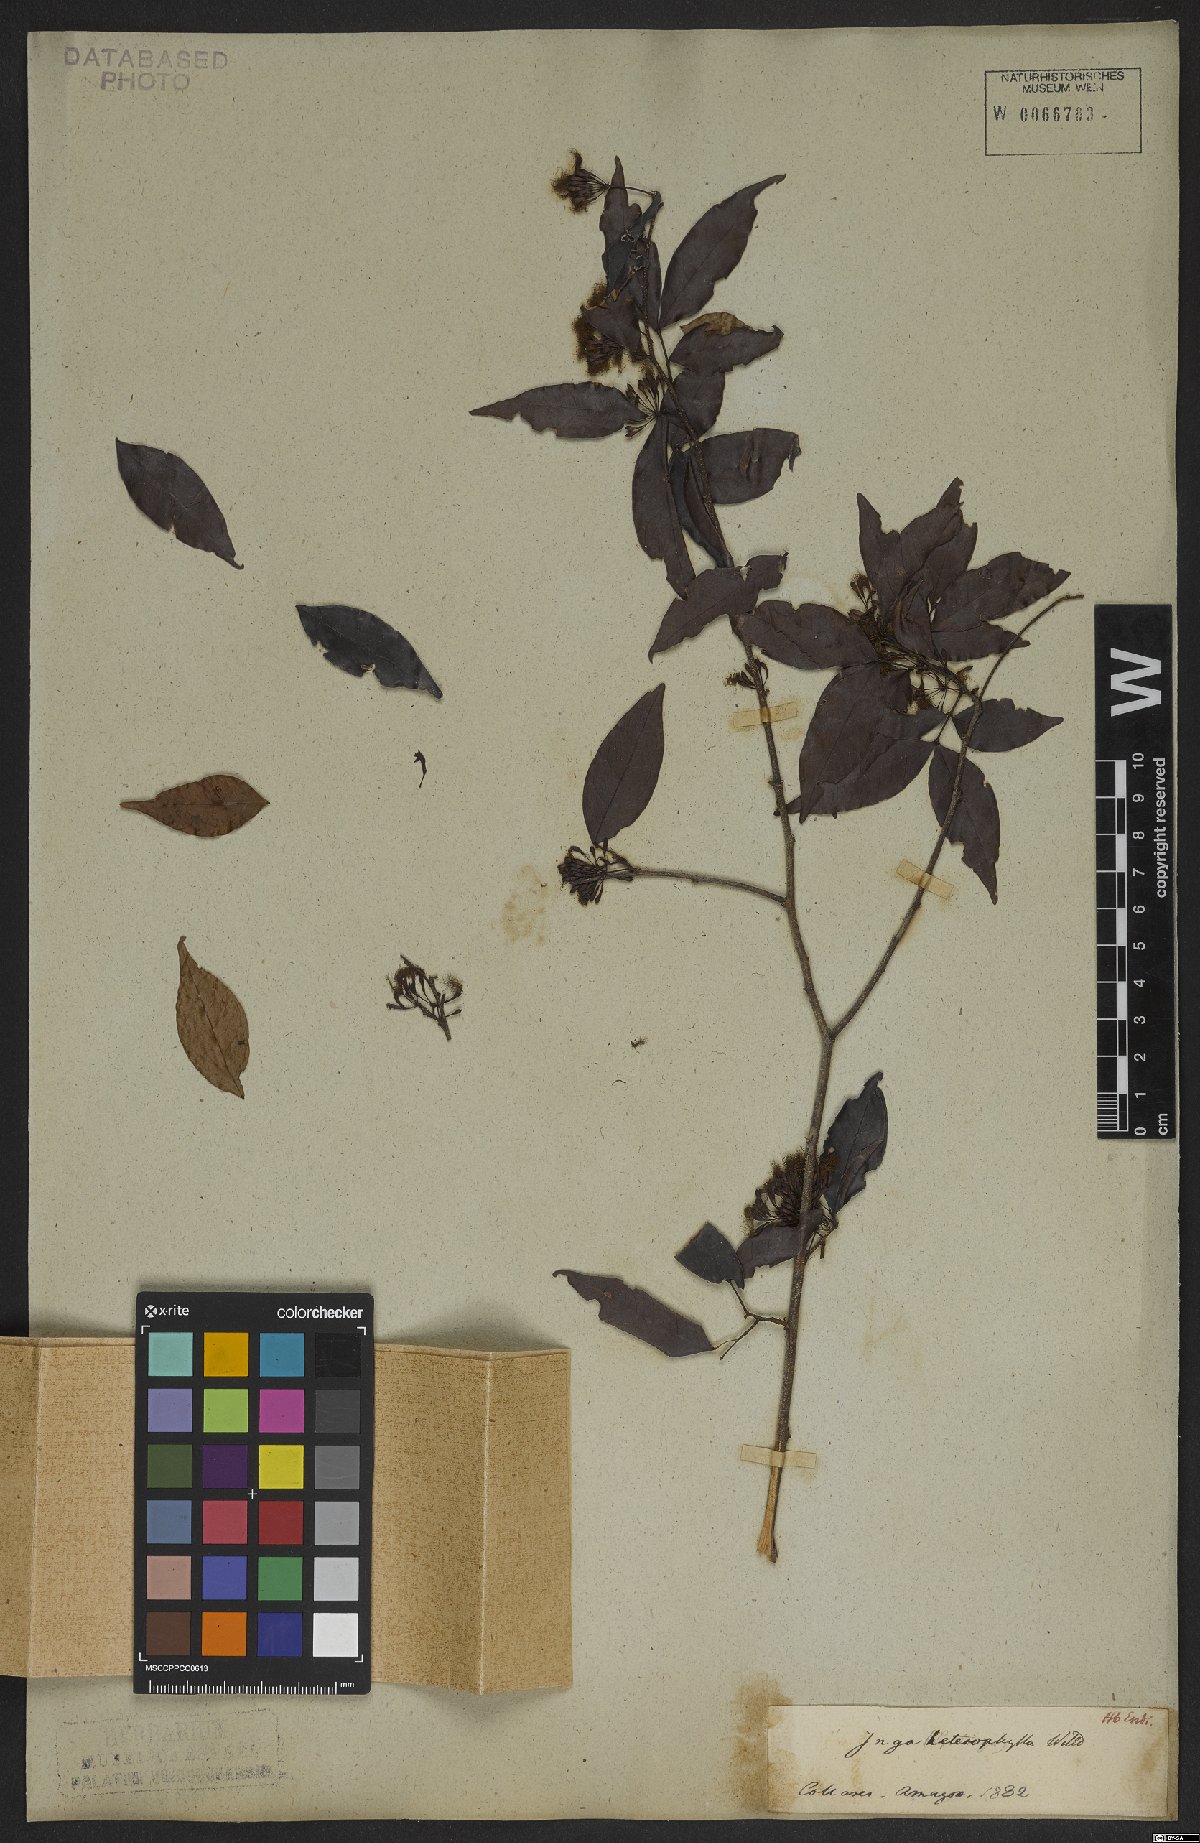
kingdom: Plantae
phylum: Tracheophyta
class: Magnoliopsida
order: Fabales
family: Fabaceae
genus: Inga
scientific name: Inga heterophylla
